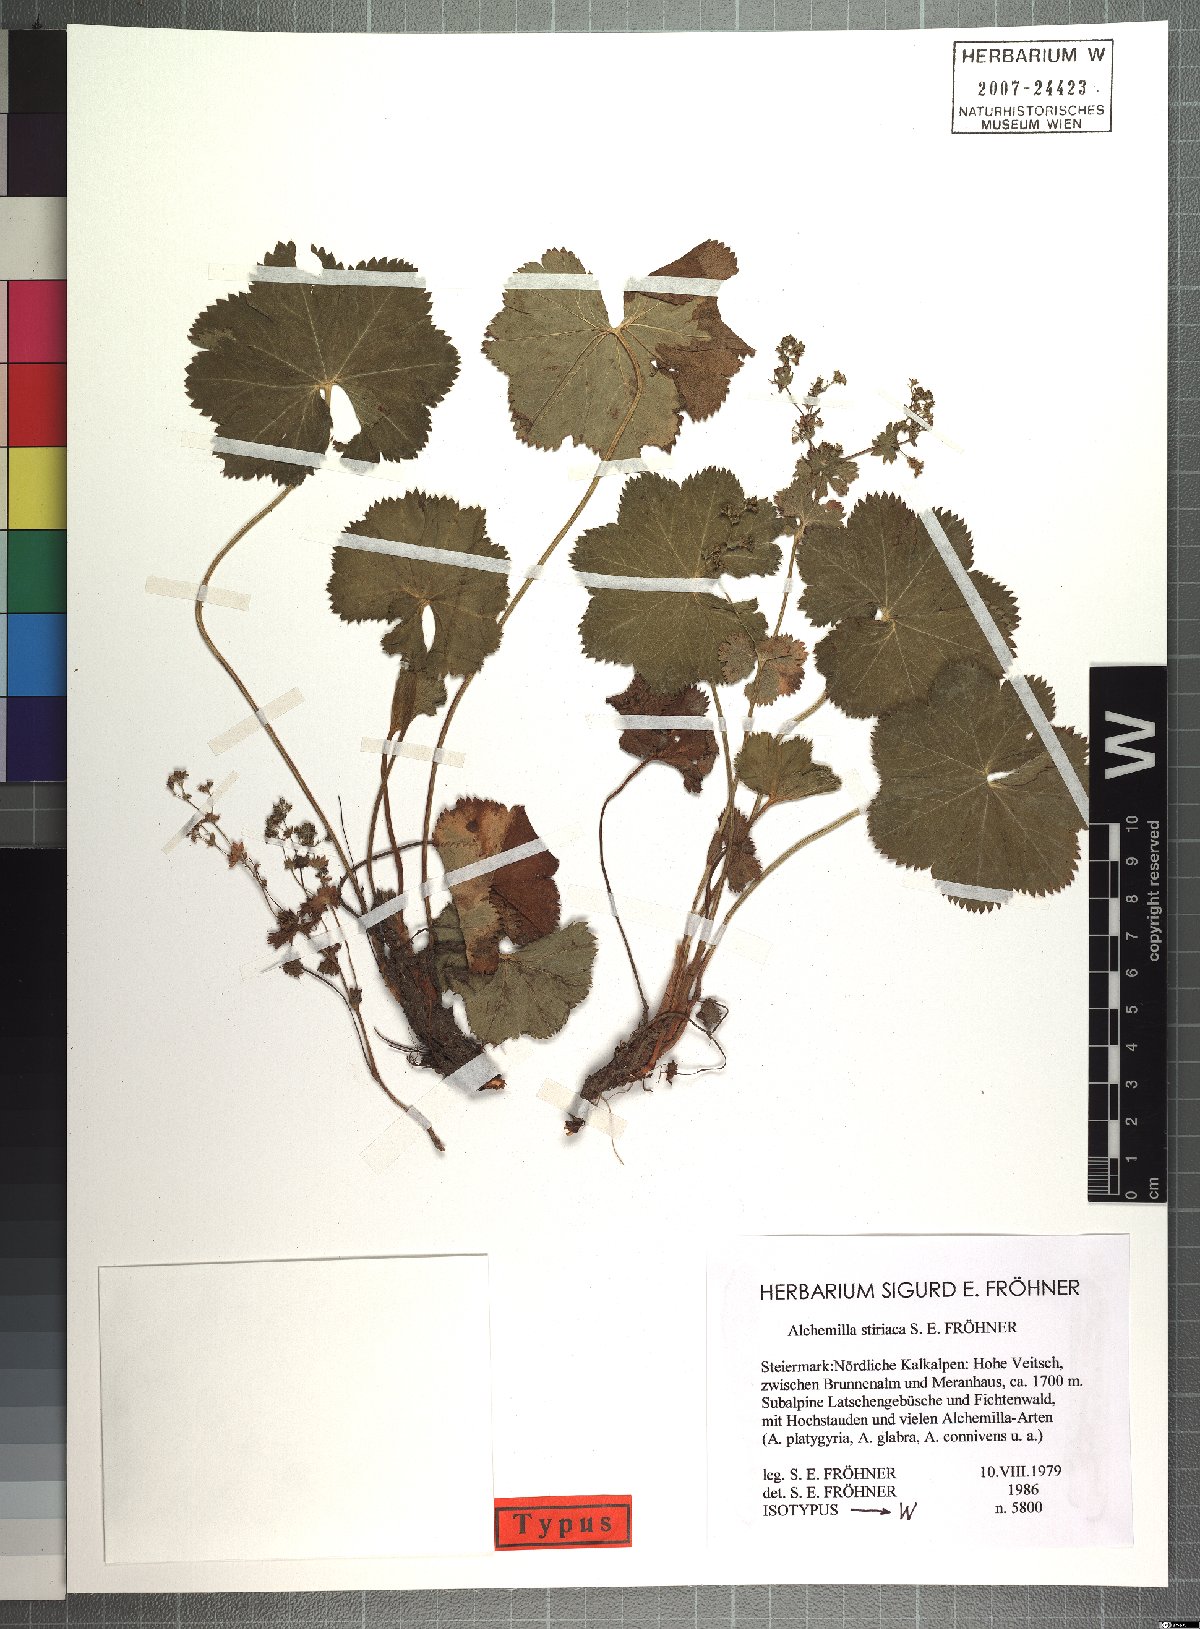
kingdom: Plantae
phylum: Tracheophyta
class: Magnoliopsida
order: Rosales
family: Rosaceae
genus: Alchemilla
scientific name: Alchemilla stiriaca
